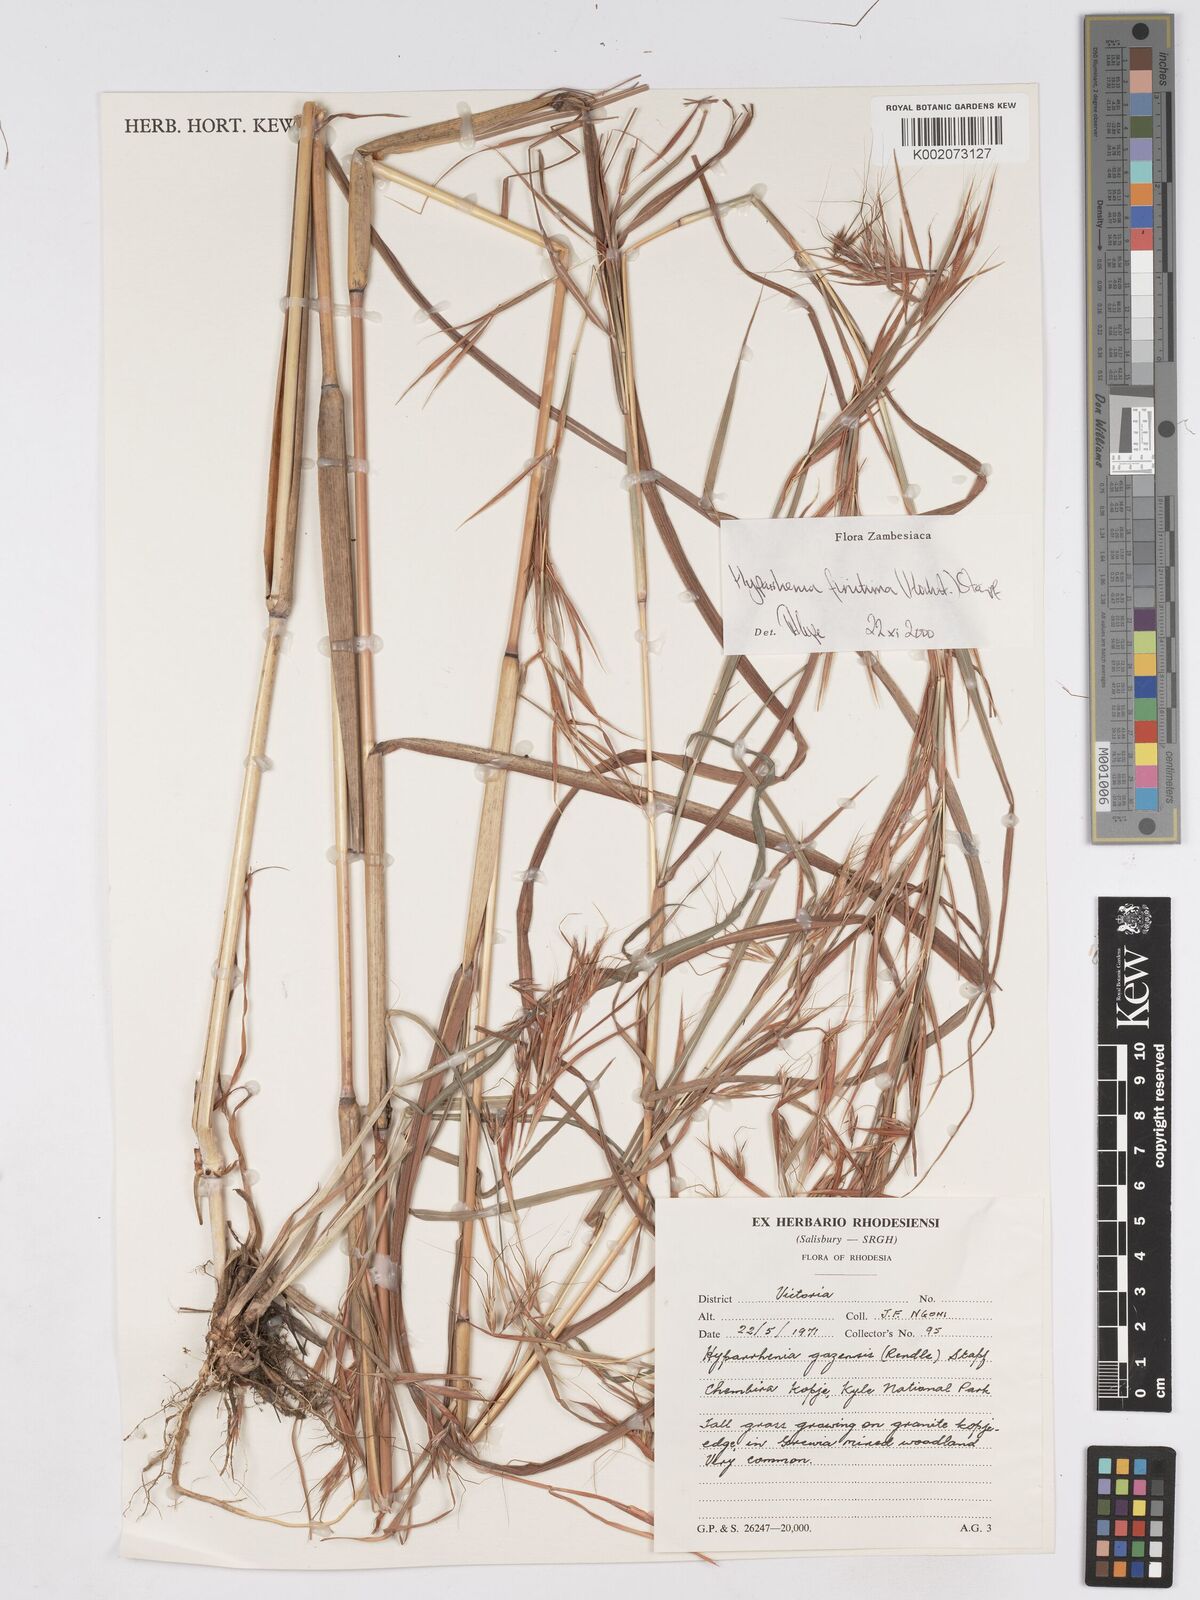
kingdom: Plantae
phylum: Tracheophyta
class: Liliopsida
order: Poales
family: Poaceae
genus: Hyparrhenia
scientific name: Hyparrhenia finitima
